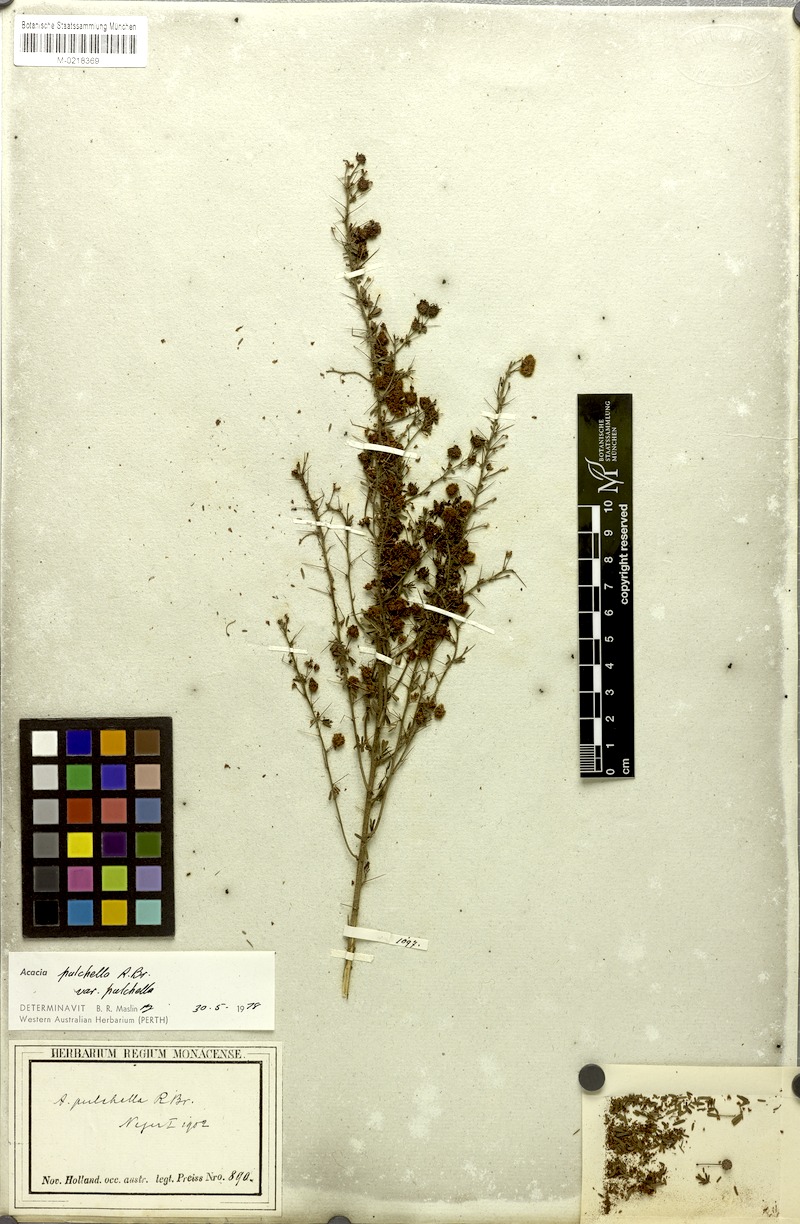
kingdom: Plantae
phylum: Tracheophyta
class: Magnoliopsida
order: Fabales
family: Fabaceae
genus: Acacia
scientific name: Acacia pulchella
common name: Prickly moses
